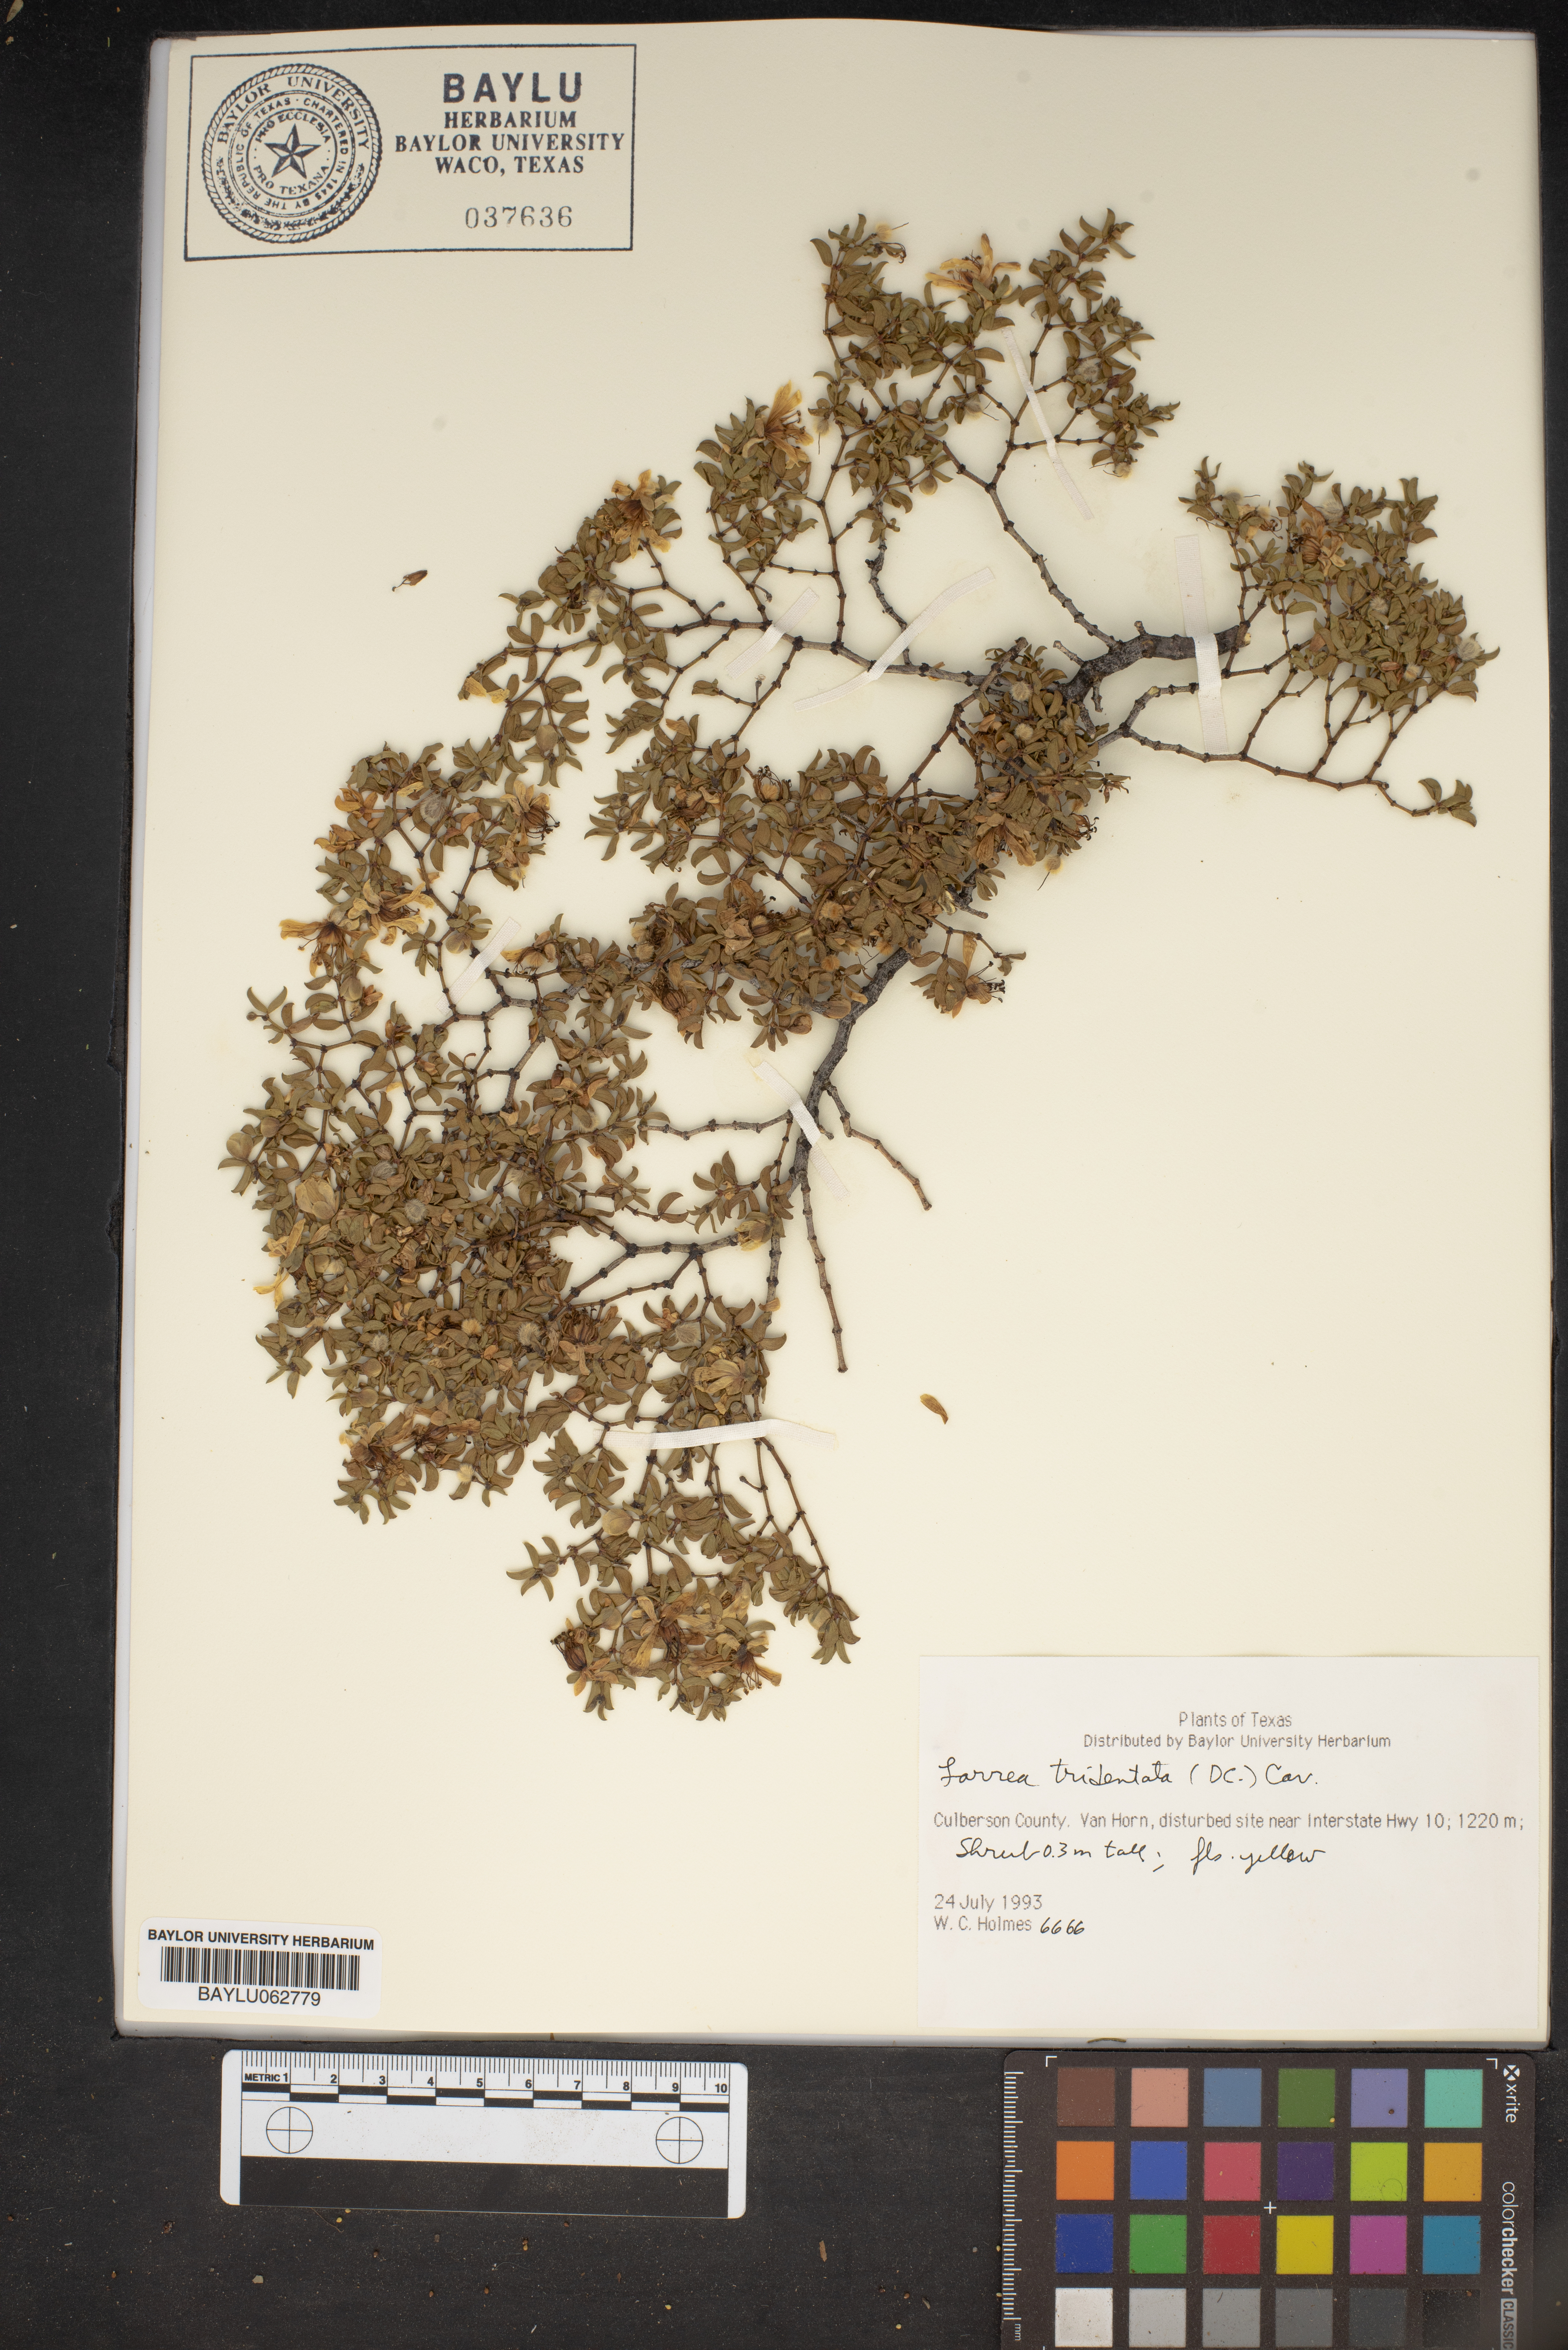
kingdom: Plantae
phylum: Tracheophyta
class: Magnoliopsida
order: Zygophyllales
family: Zygophyllaceae
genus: Larrea
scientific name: Larrea tridentata
